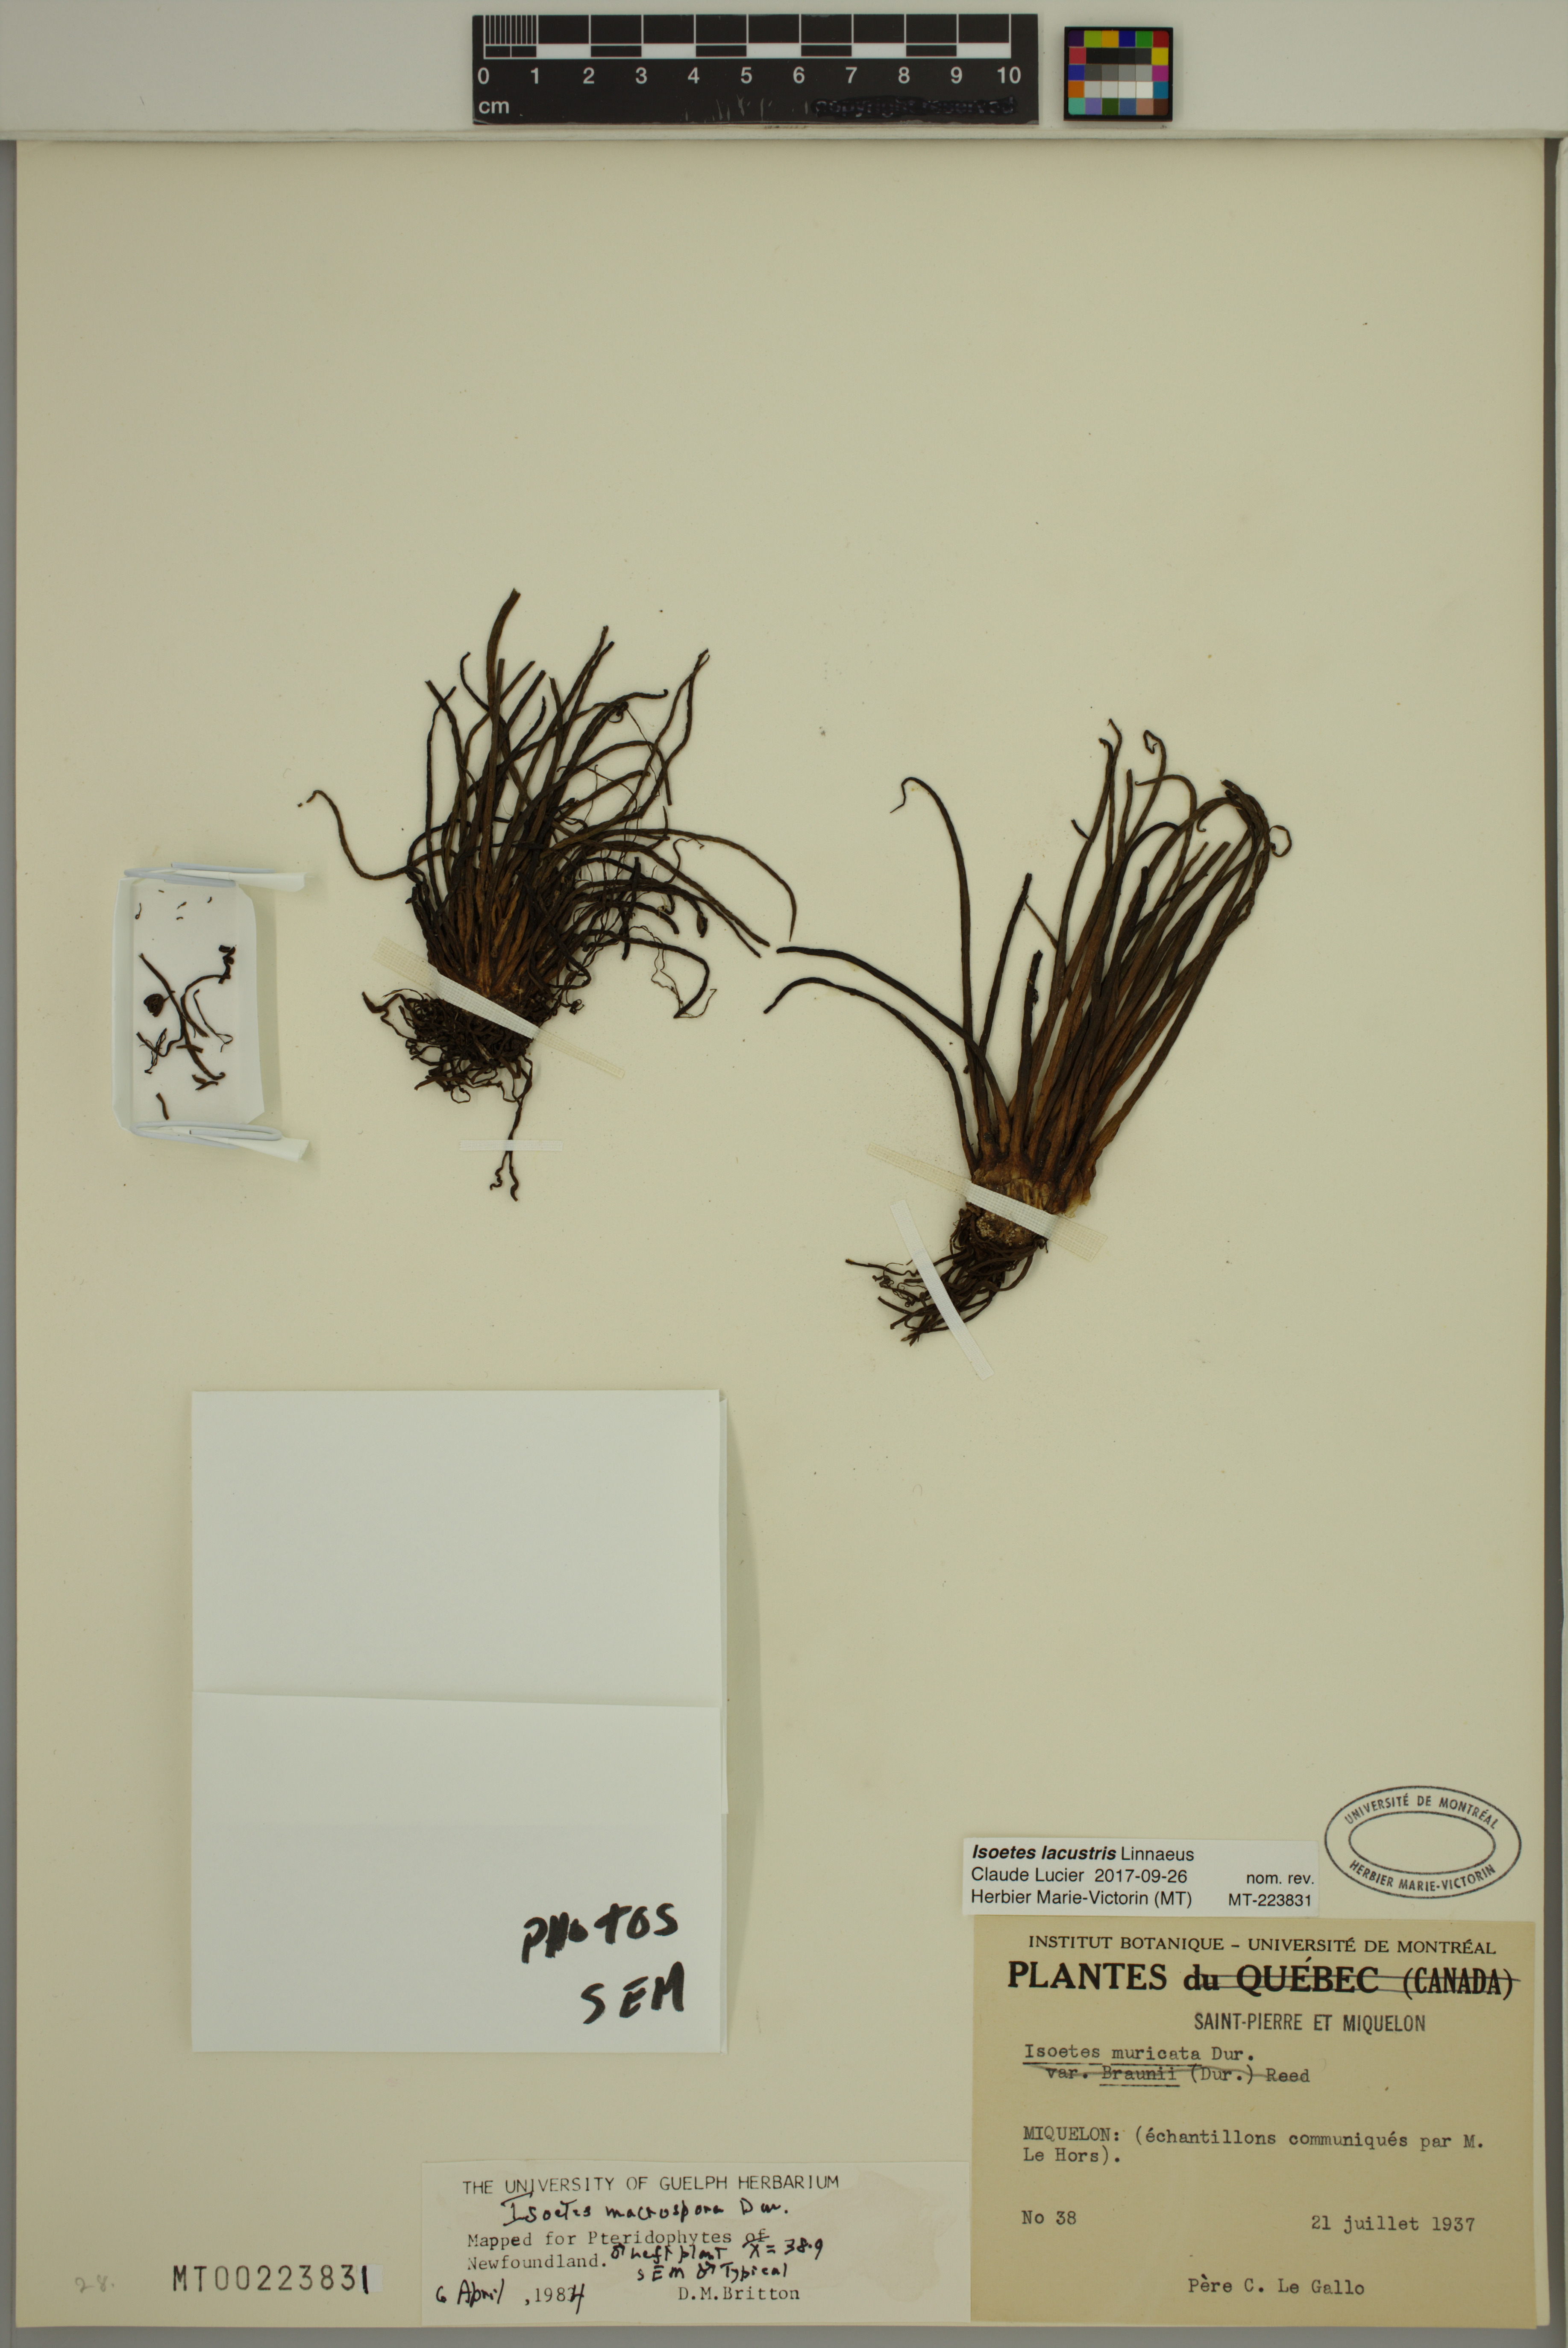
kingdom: Plantae
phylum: Tracheophyta
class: Lycopodiopsida
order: Isoetales
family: Isoetaceae
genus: Isoetes
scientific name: Isoetes lacustris
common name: Common quillwort
